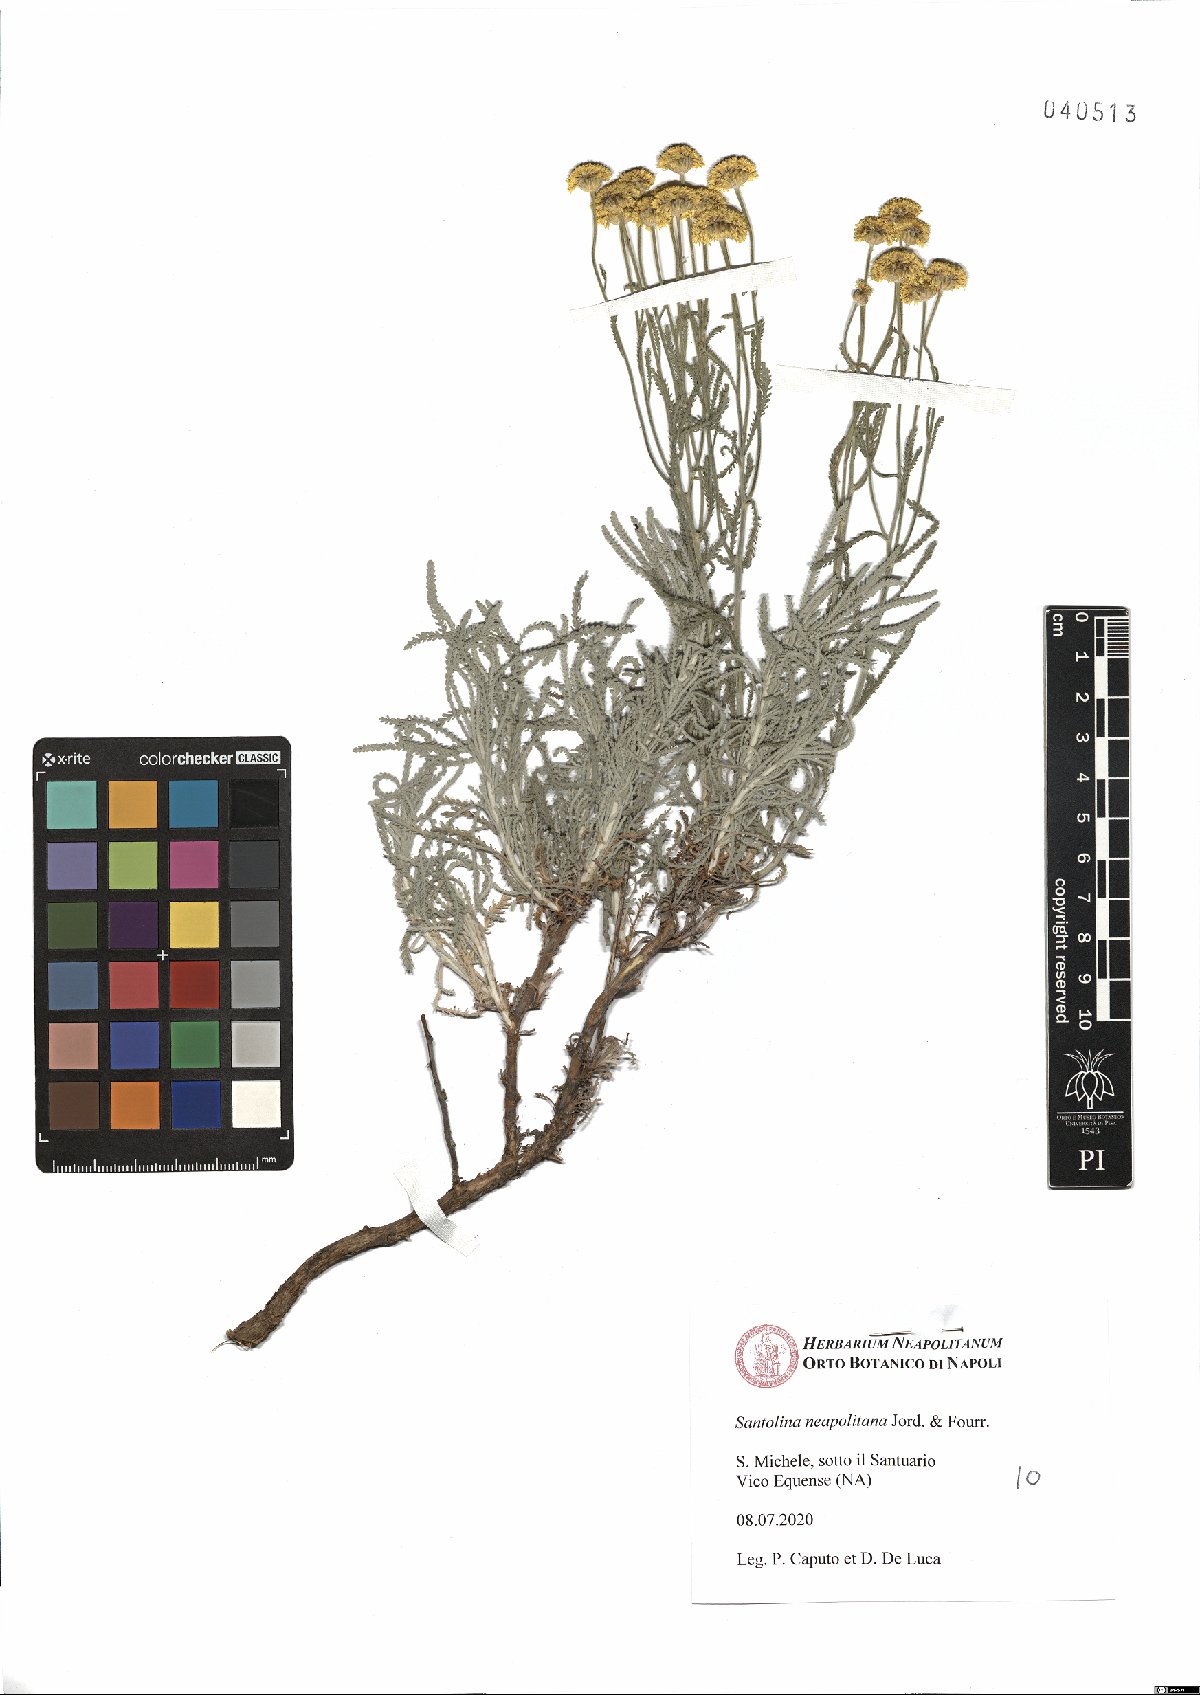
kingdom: Plantae
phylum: Tracheophyta
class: Magnoliopsida
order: Asterales
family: Asteraceae
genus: Santolina
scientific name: Santolina neapolitana
